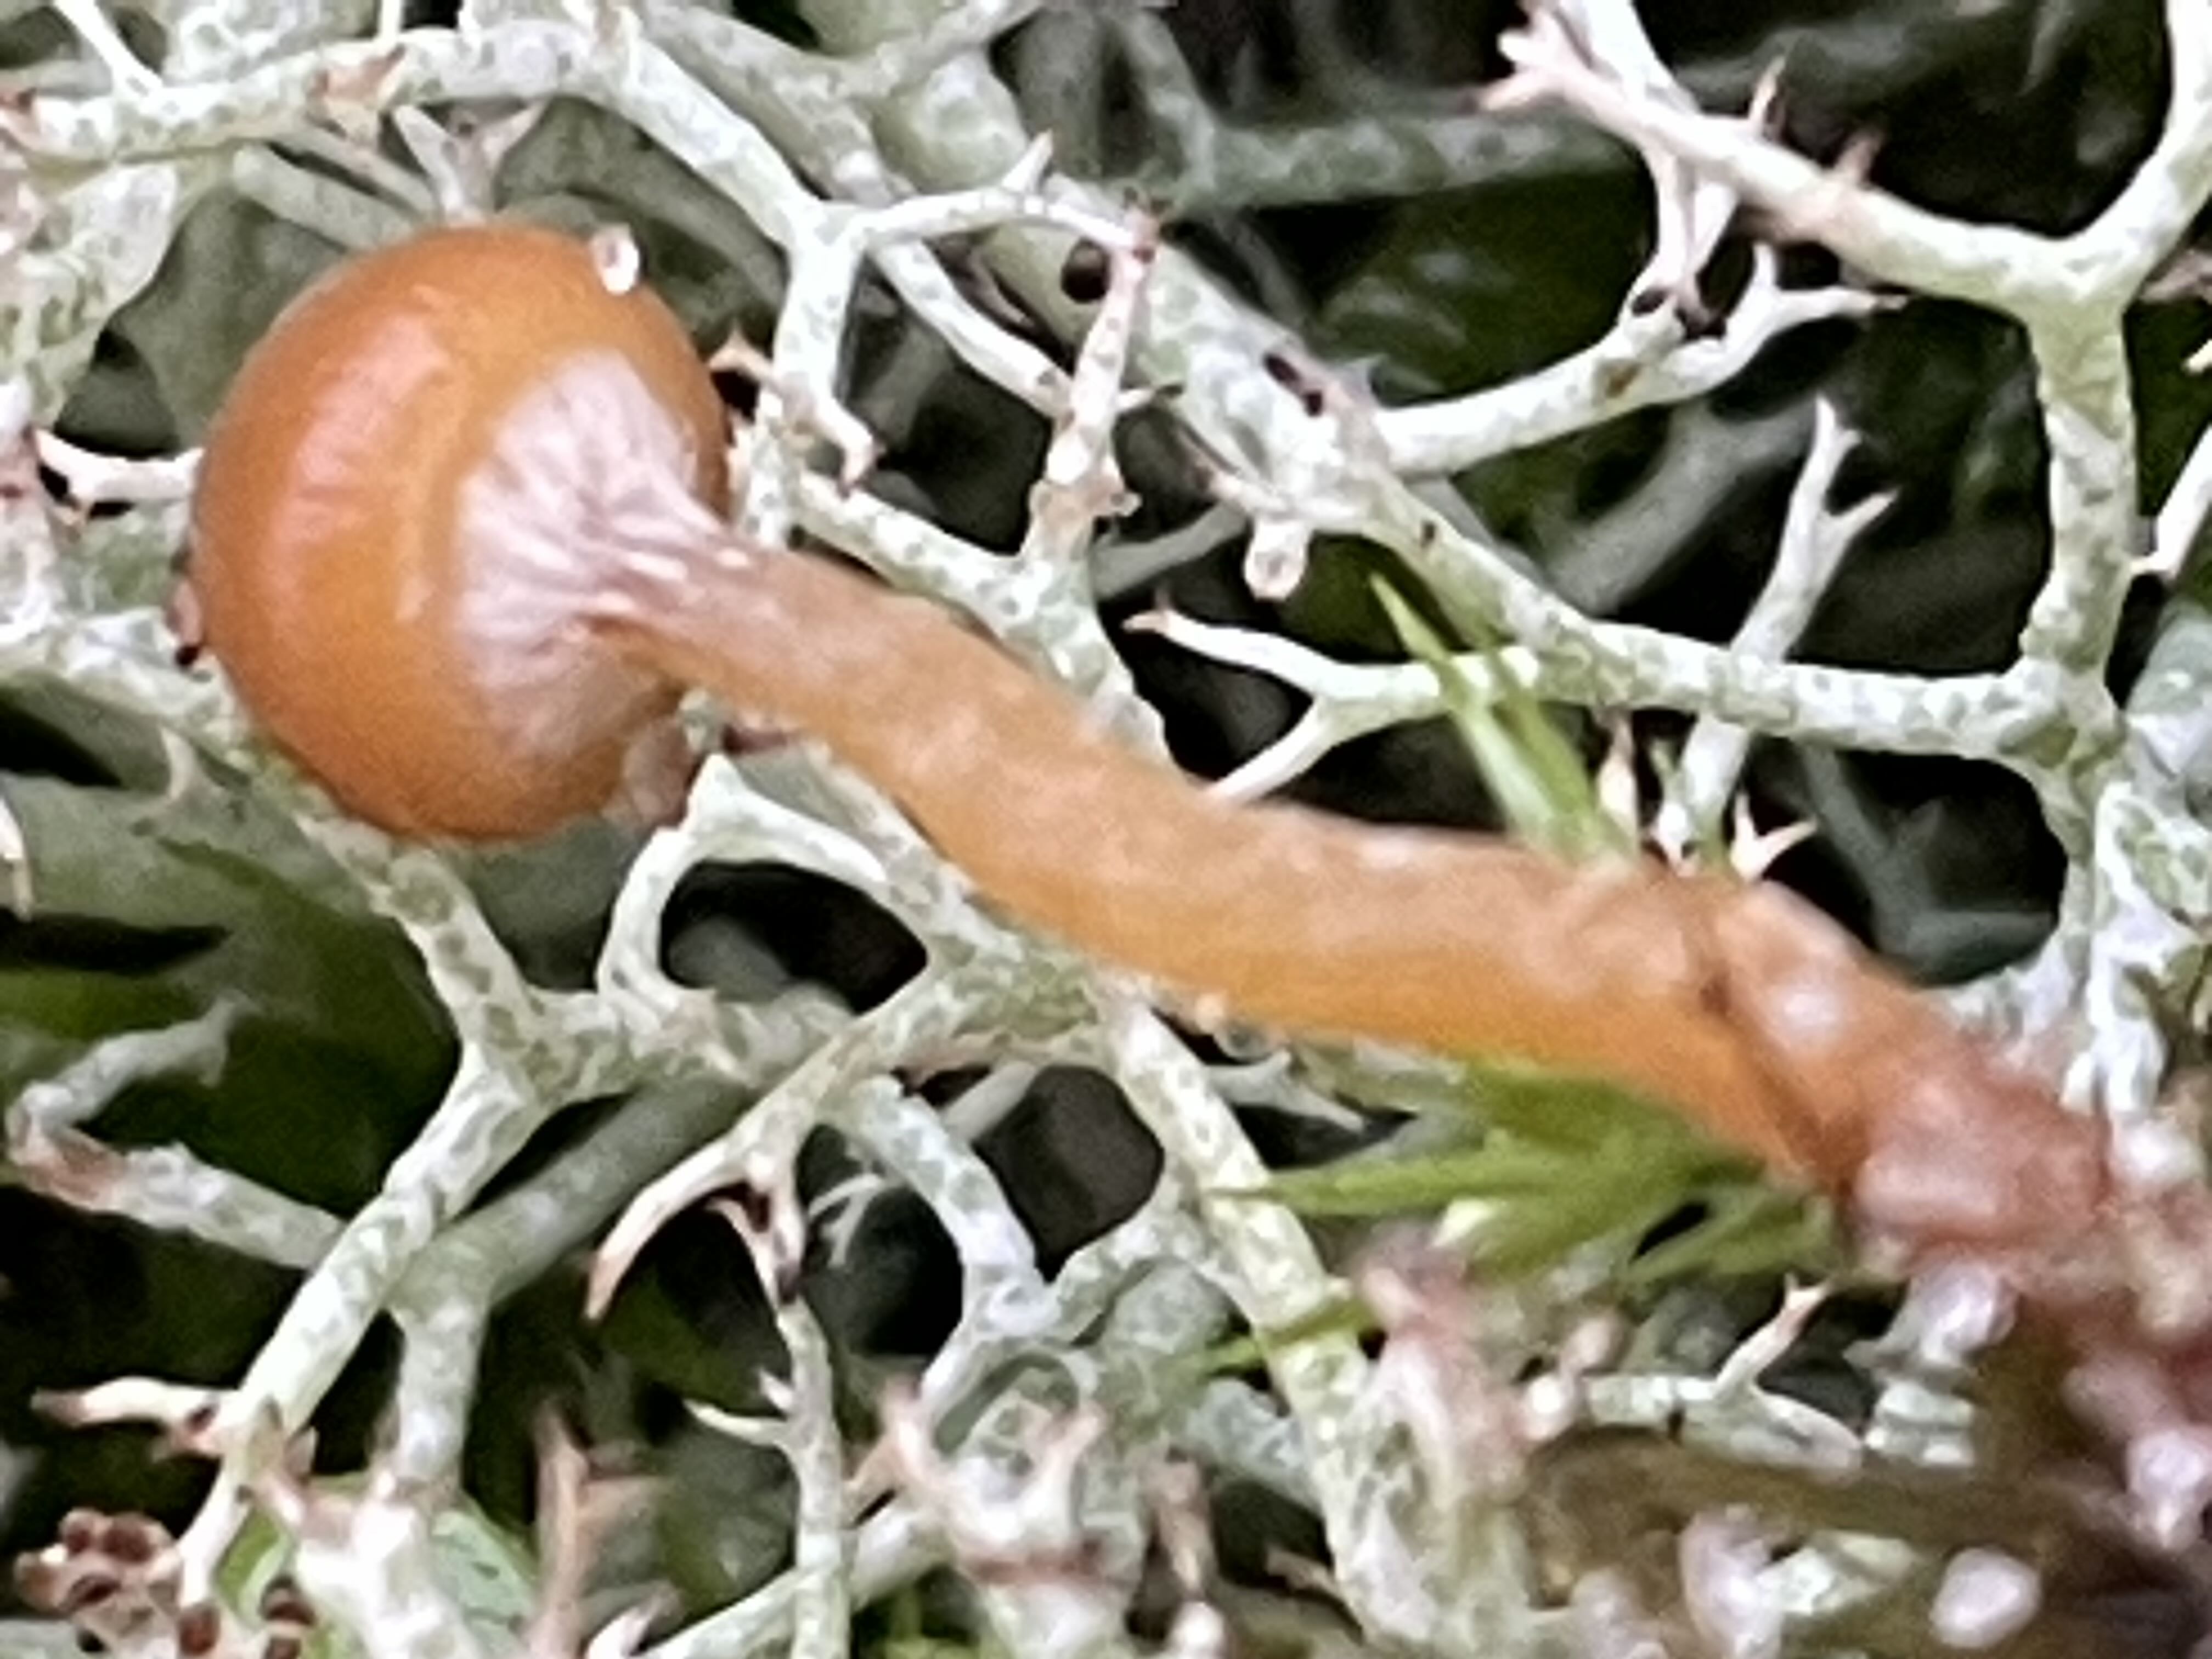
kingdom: Fungi
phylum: Basidiomycota
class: Agaricomycetes
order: Agaricales
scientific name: Agaricales
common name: champignonordenen
